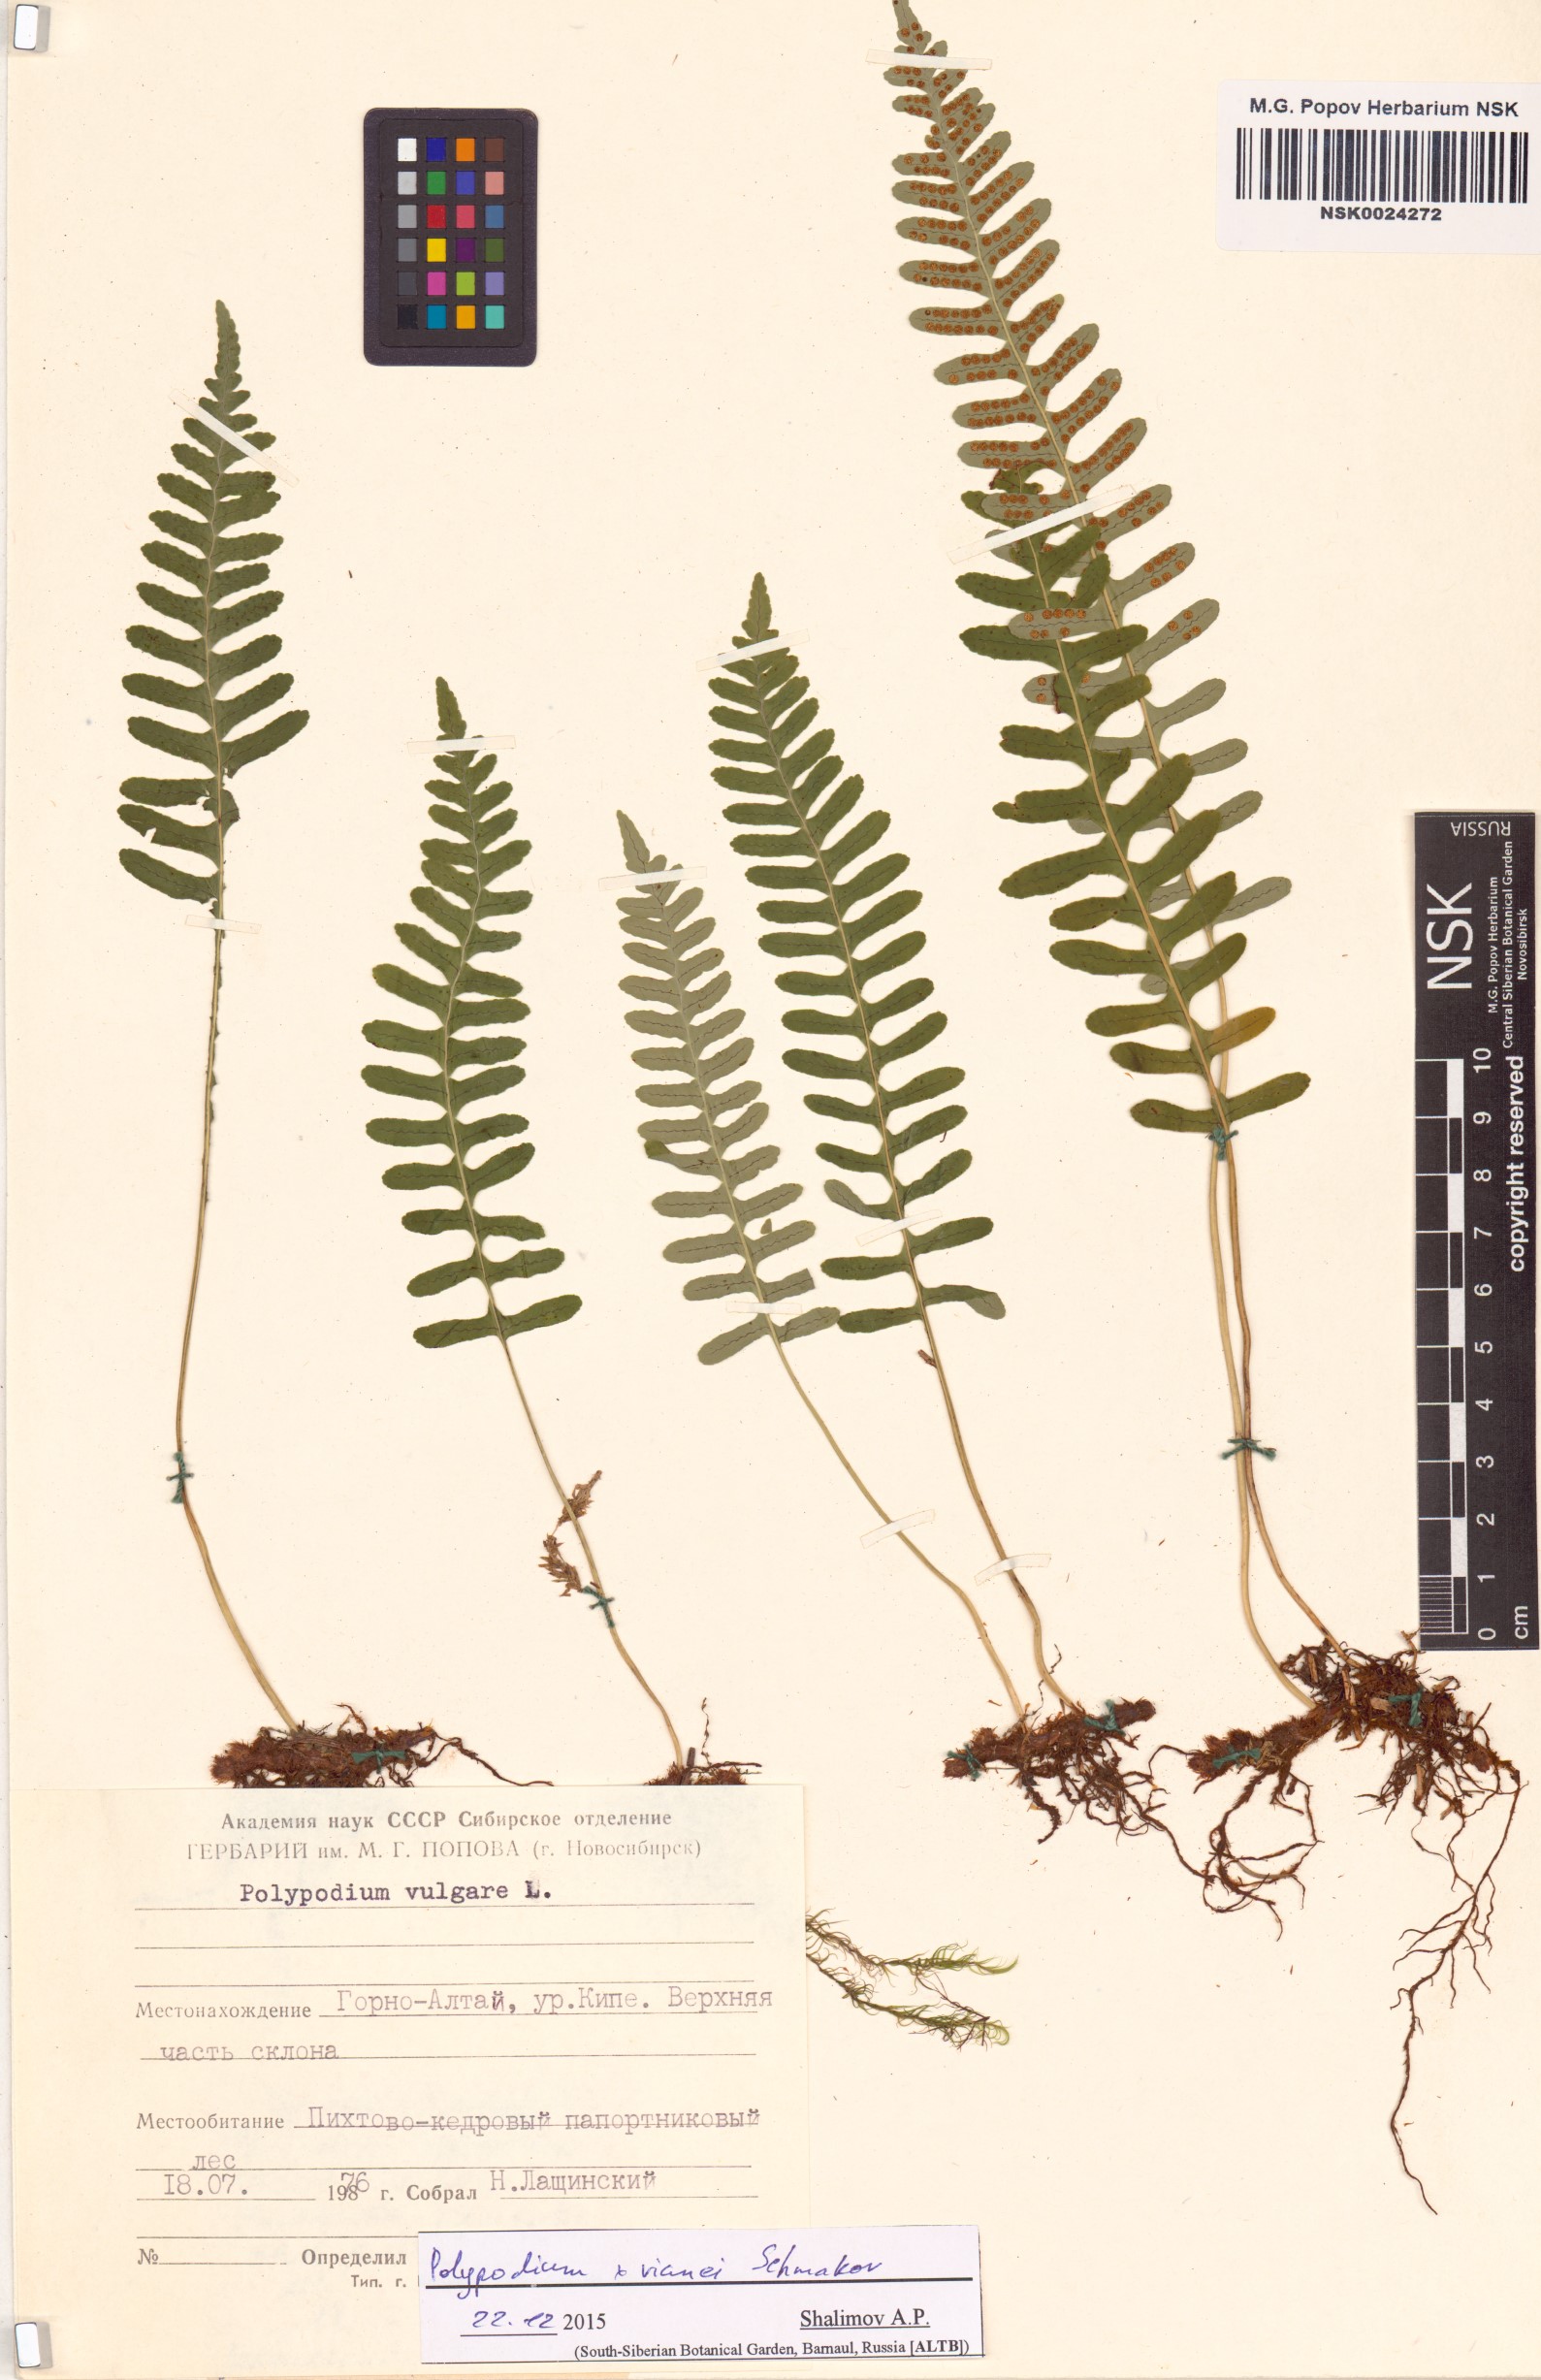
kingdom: Plantae
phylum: Tracheophyta
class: Polypodiopsida
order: Polypodiales
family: Polypodiaceae
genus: Polypodium
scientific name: Polypodium vianei
